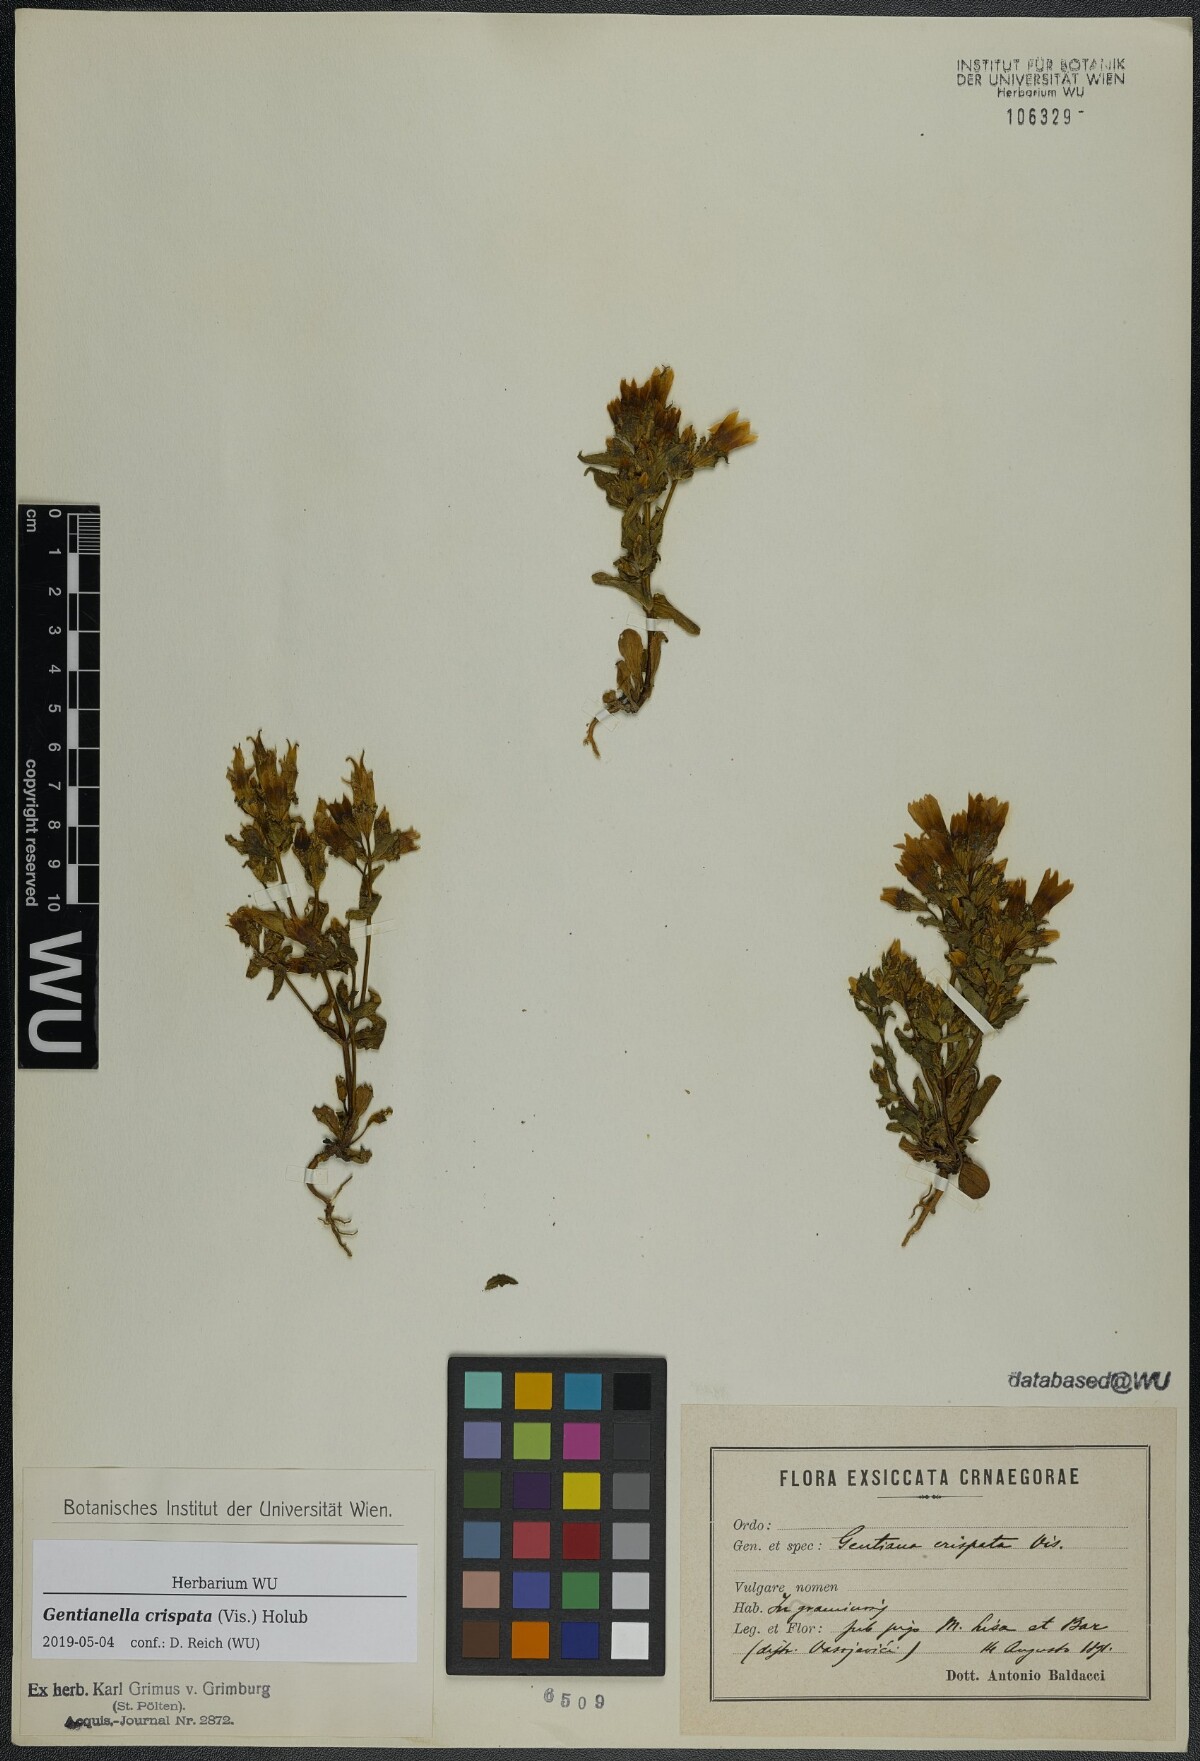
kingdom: Plantae
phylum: Tracheophyta
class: Magnoliopsida
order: Gentianales
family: Gentianaceae
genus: Gentianella
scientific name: Gentianella crispata
